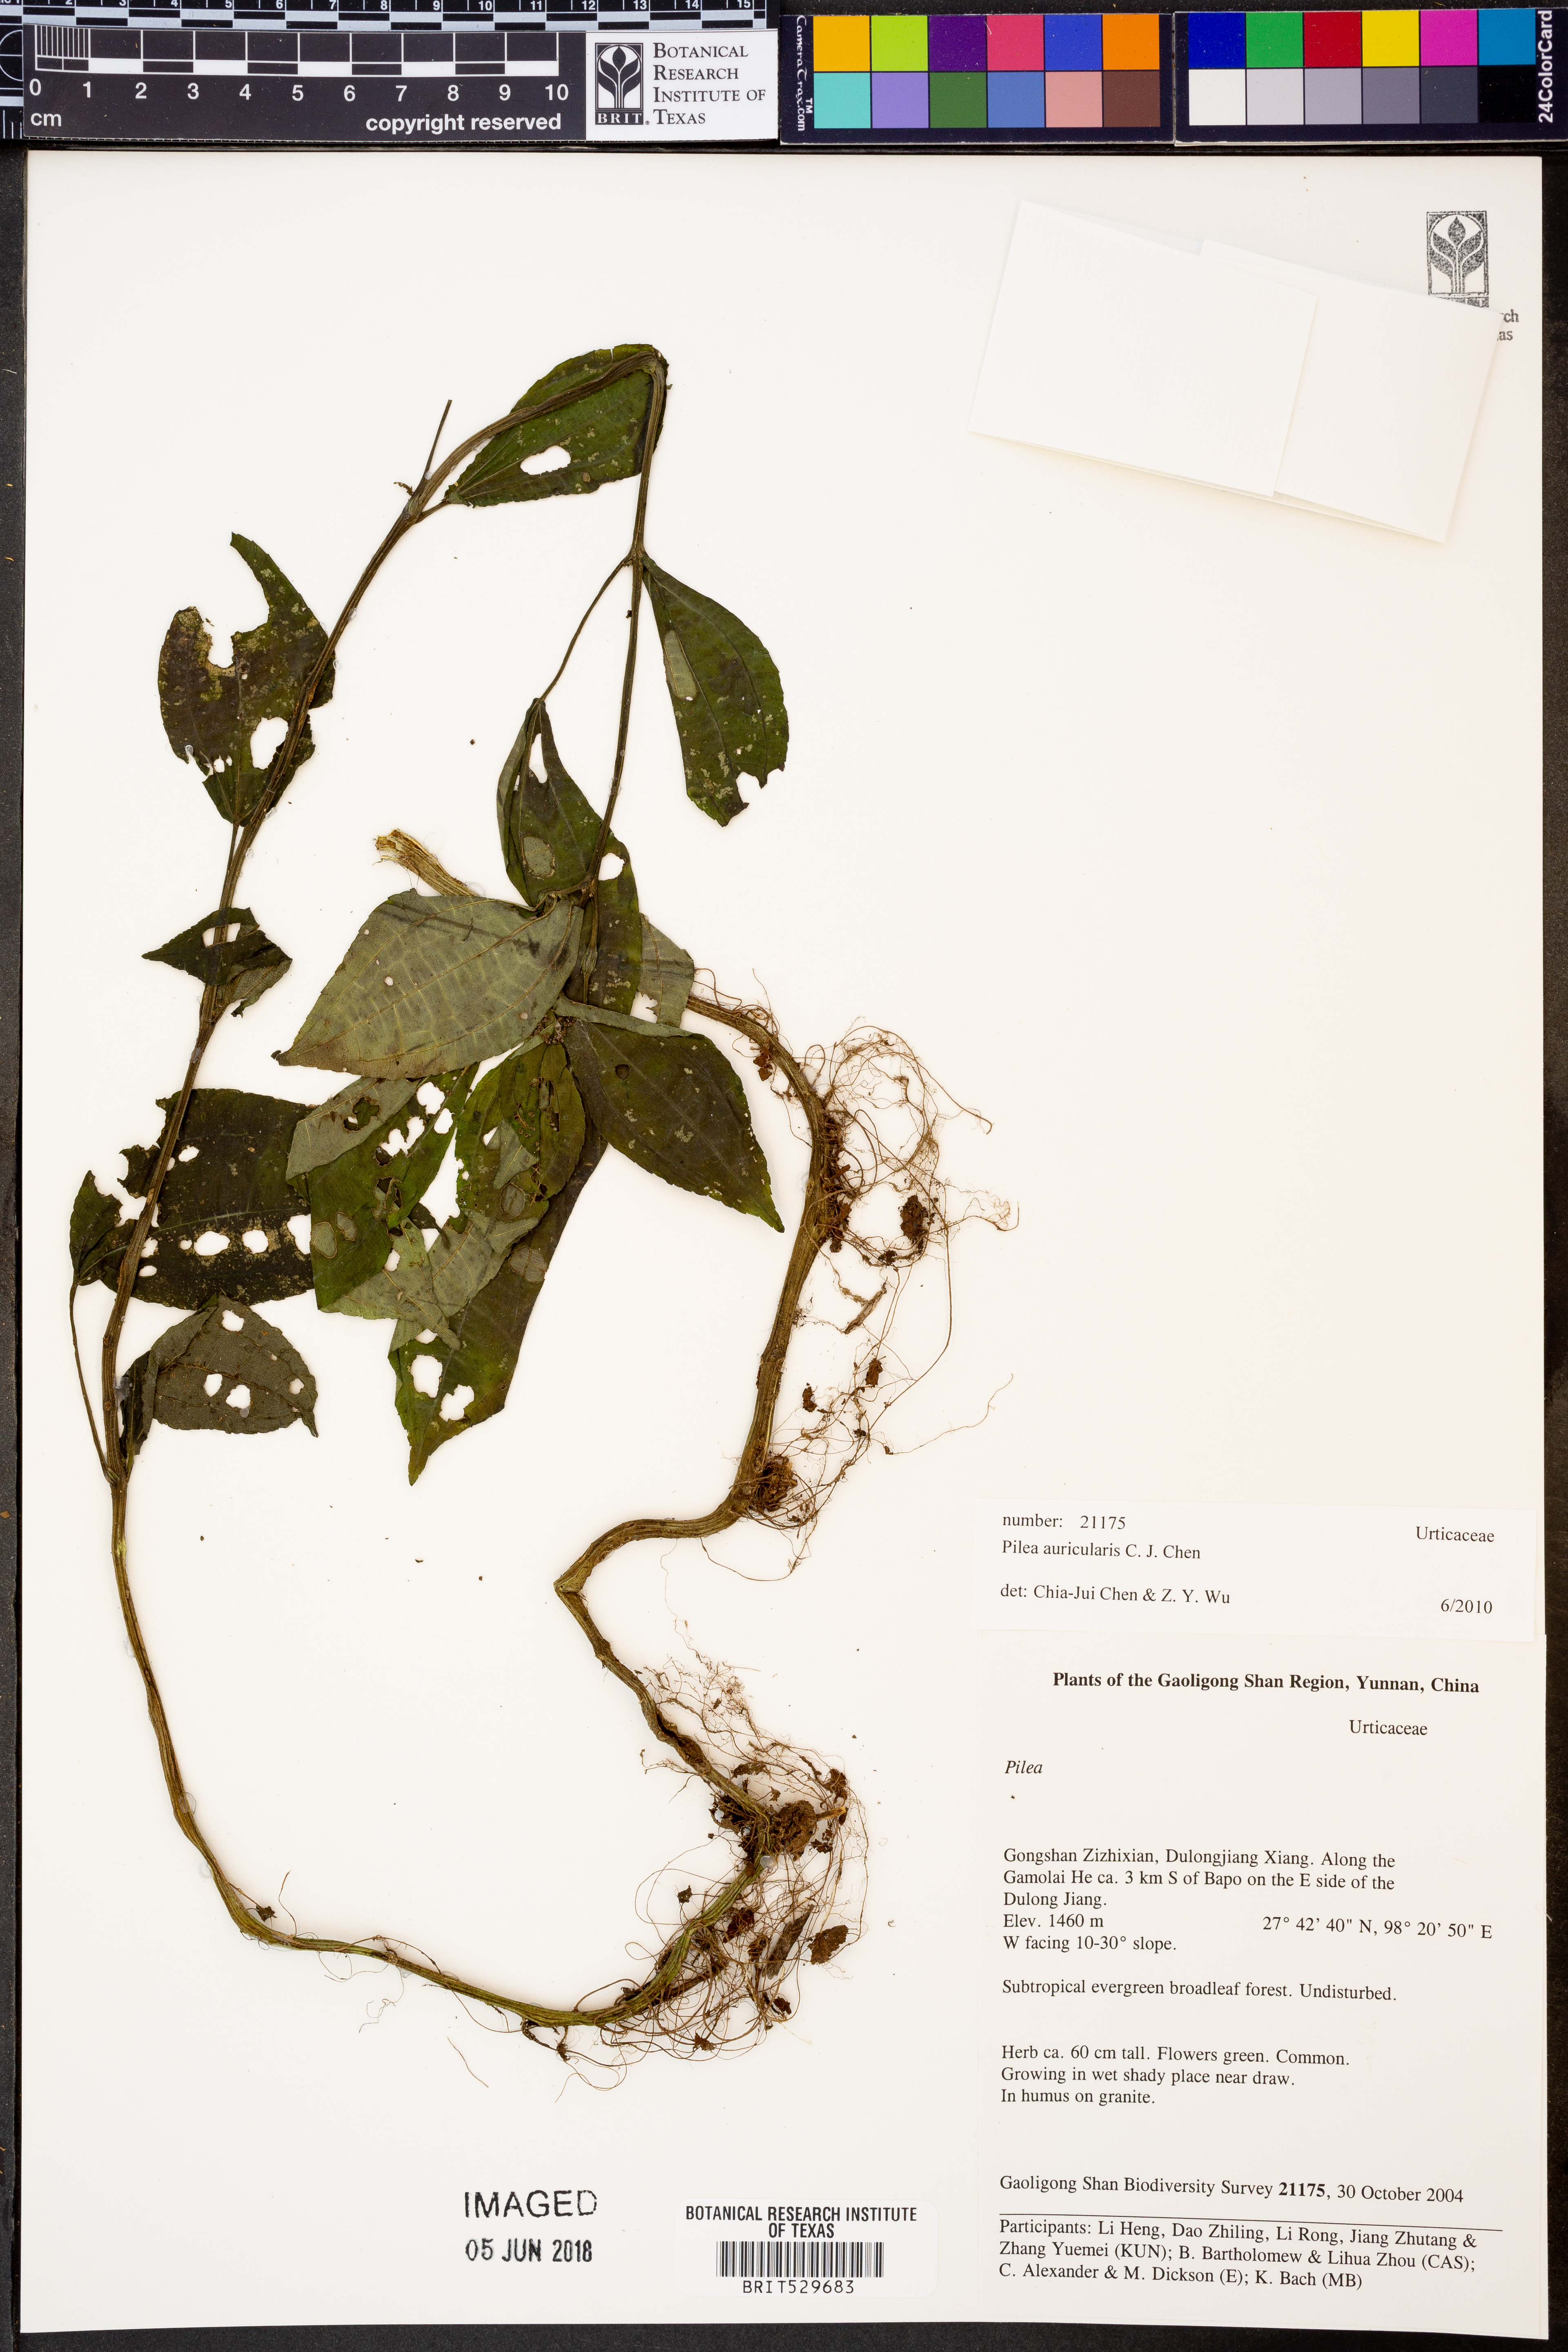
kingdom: Plantae
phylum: Tracheophyta
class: Magnoliopsida
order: Rosales
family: Urticaceae
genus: Pilea
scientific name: Pilea auricularis
